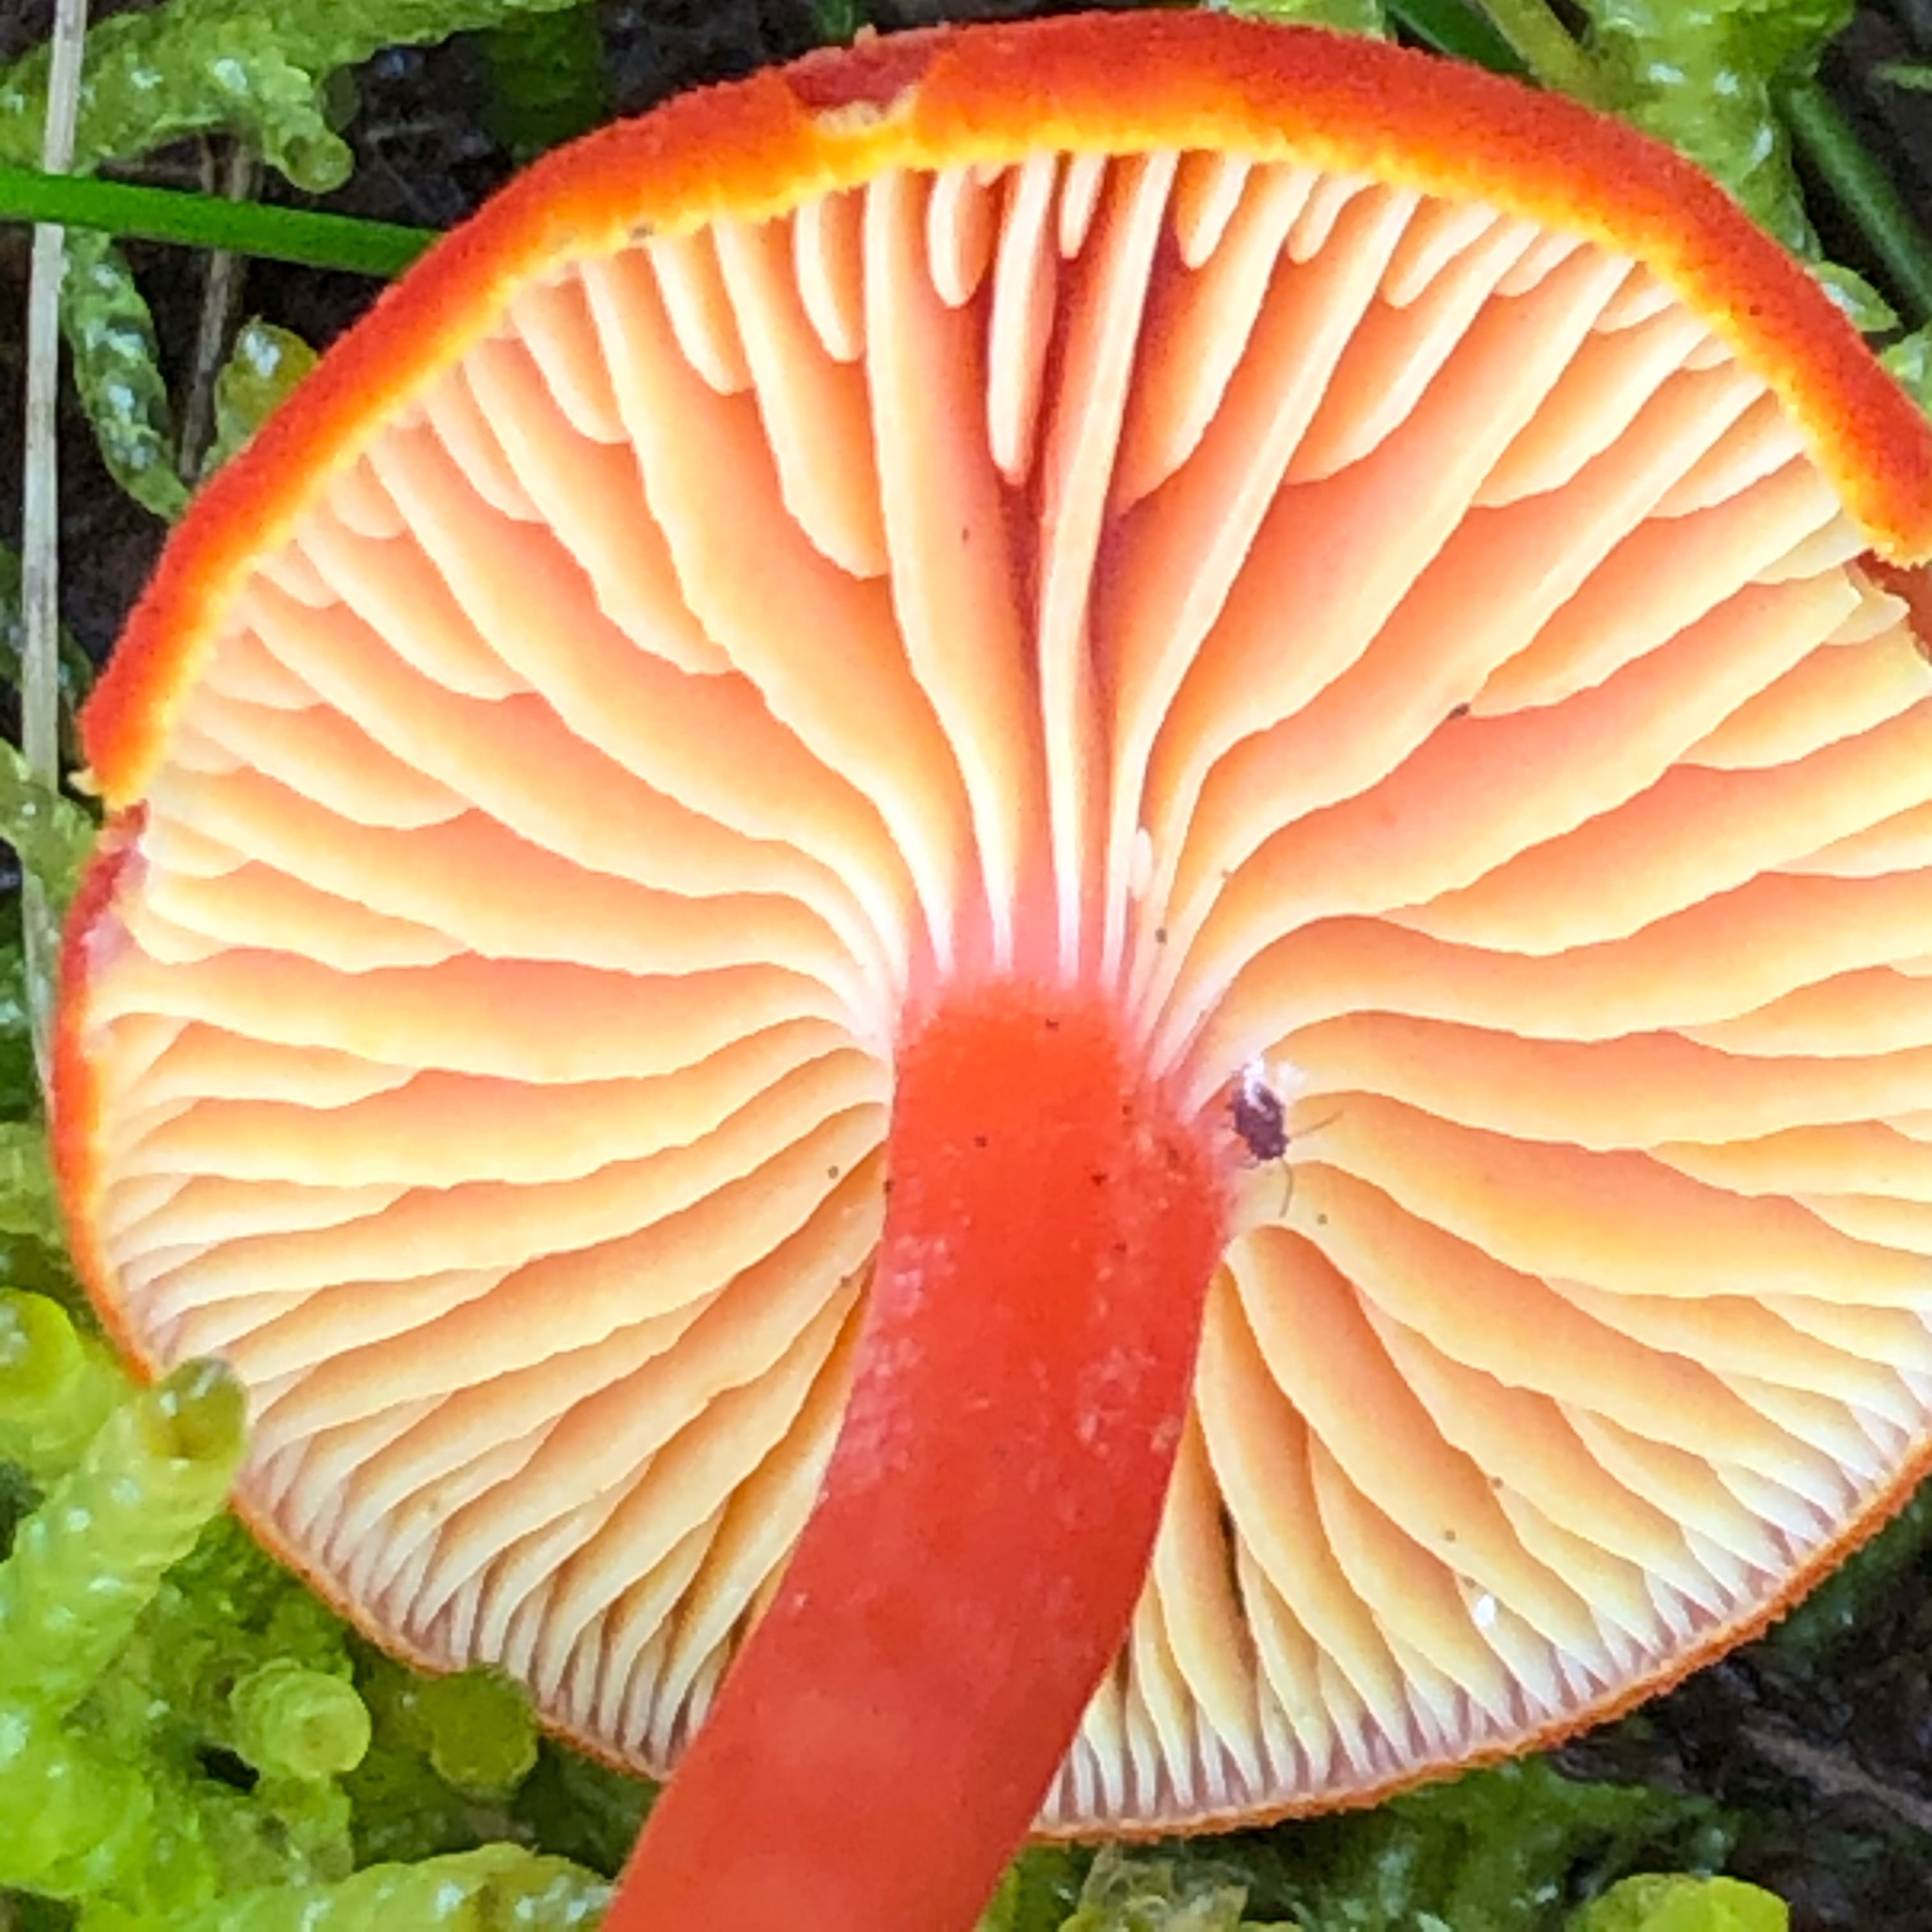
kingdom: Fungi
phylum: Basidiomycota
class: Agaricomycetes
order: Agaricales
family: Hygrophoraceae
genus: Hygrocybe
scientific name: Hygrocybe miniata
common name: mønje-vokshat
